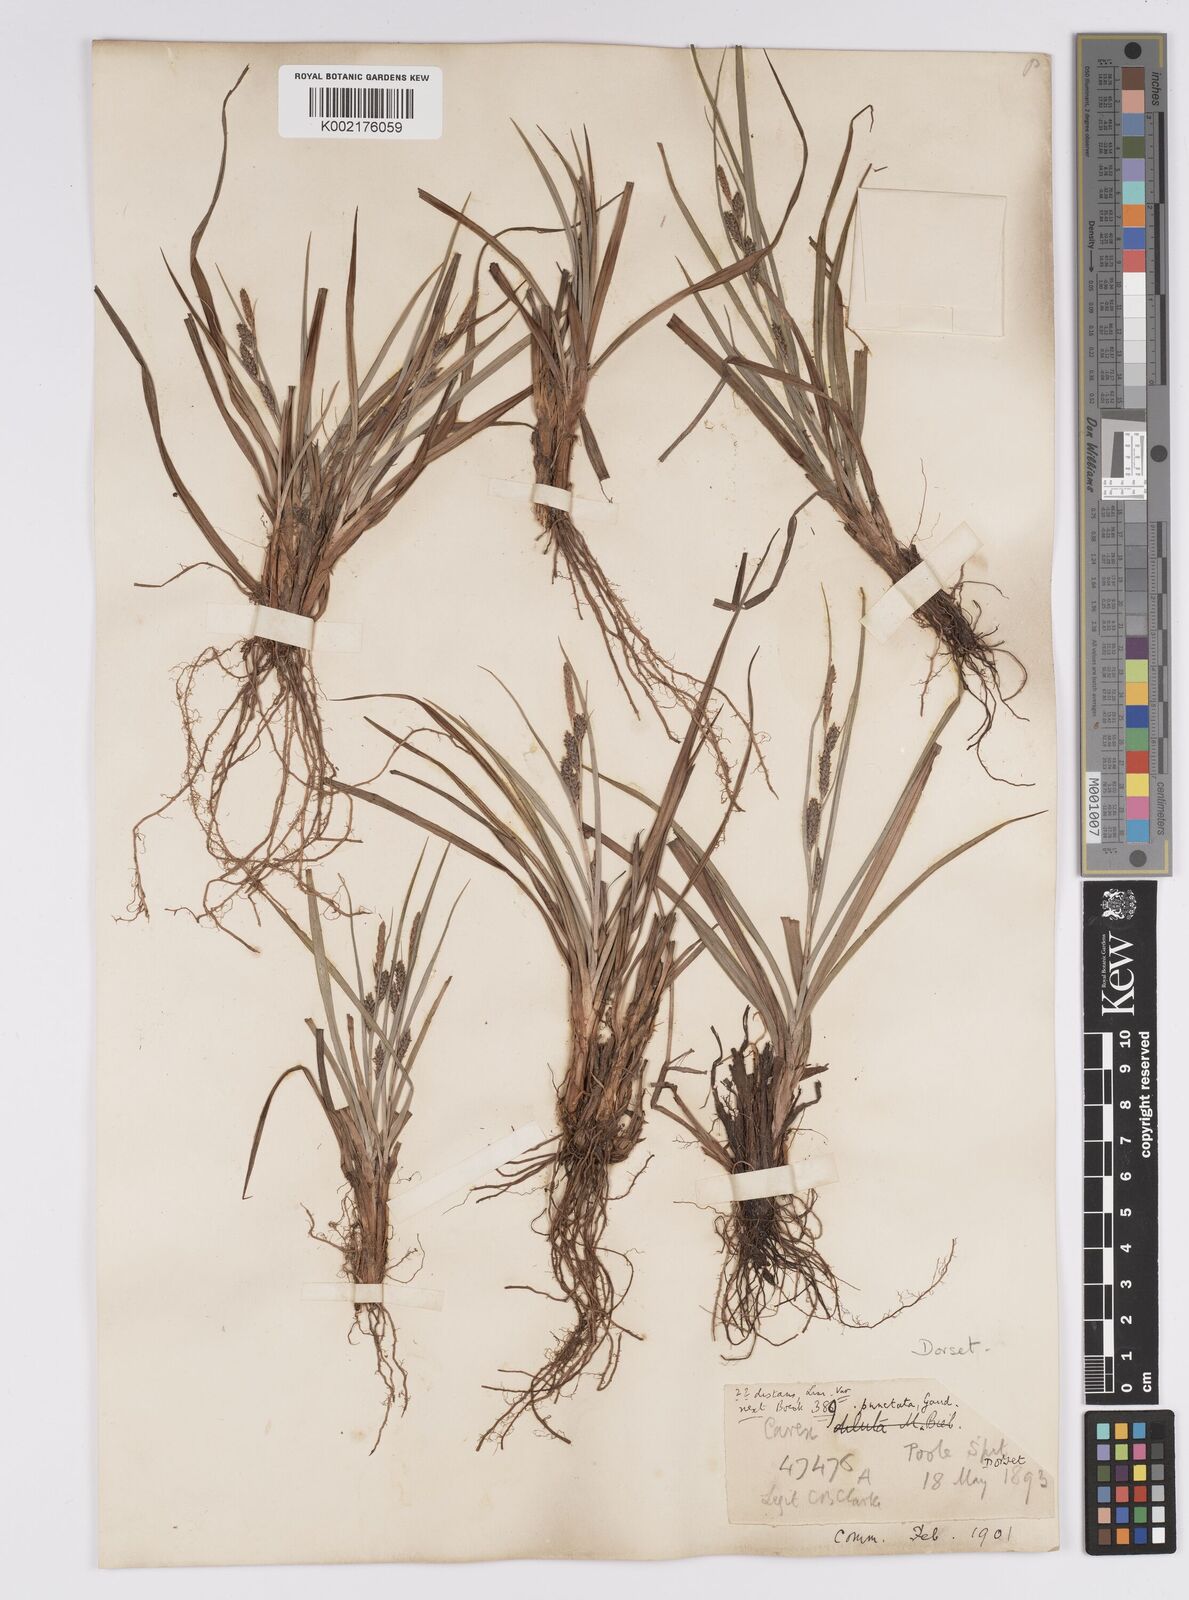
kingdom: Plantae
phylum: Tracheophyta
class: Liliopsida
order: Poales
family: Cyperaceae
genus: Carex
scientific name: Carex punctata
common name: Dotted sedge
